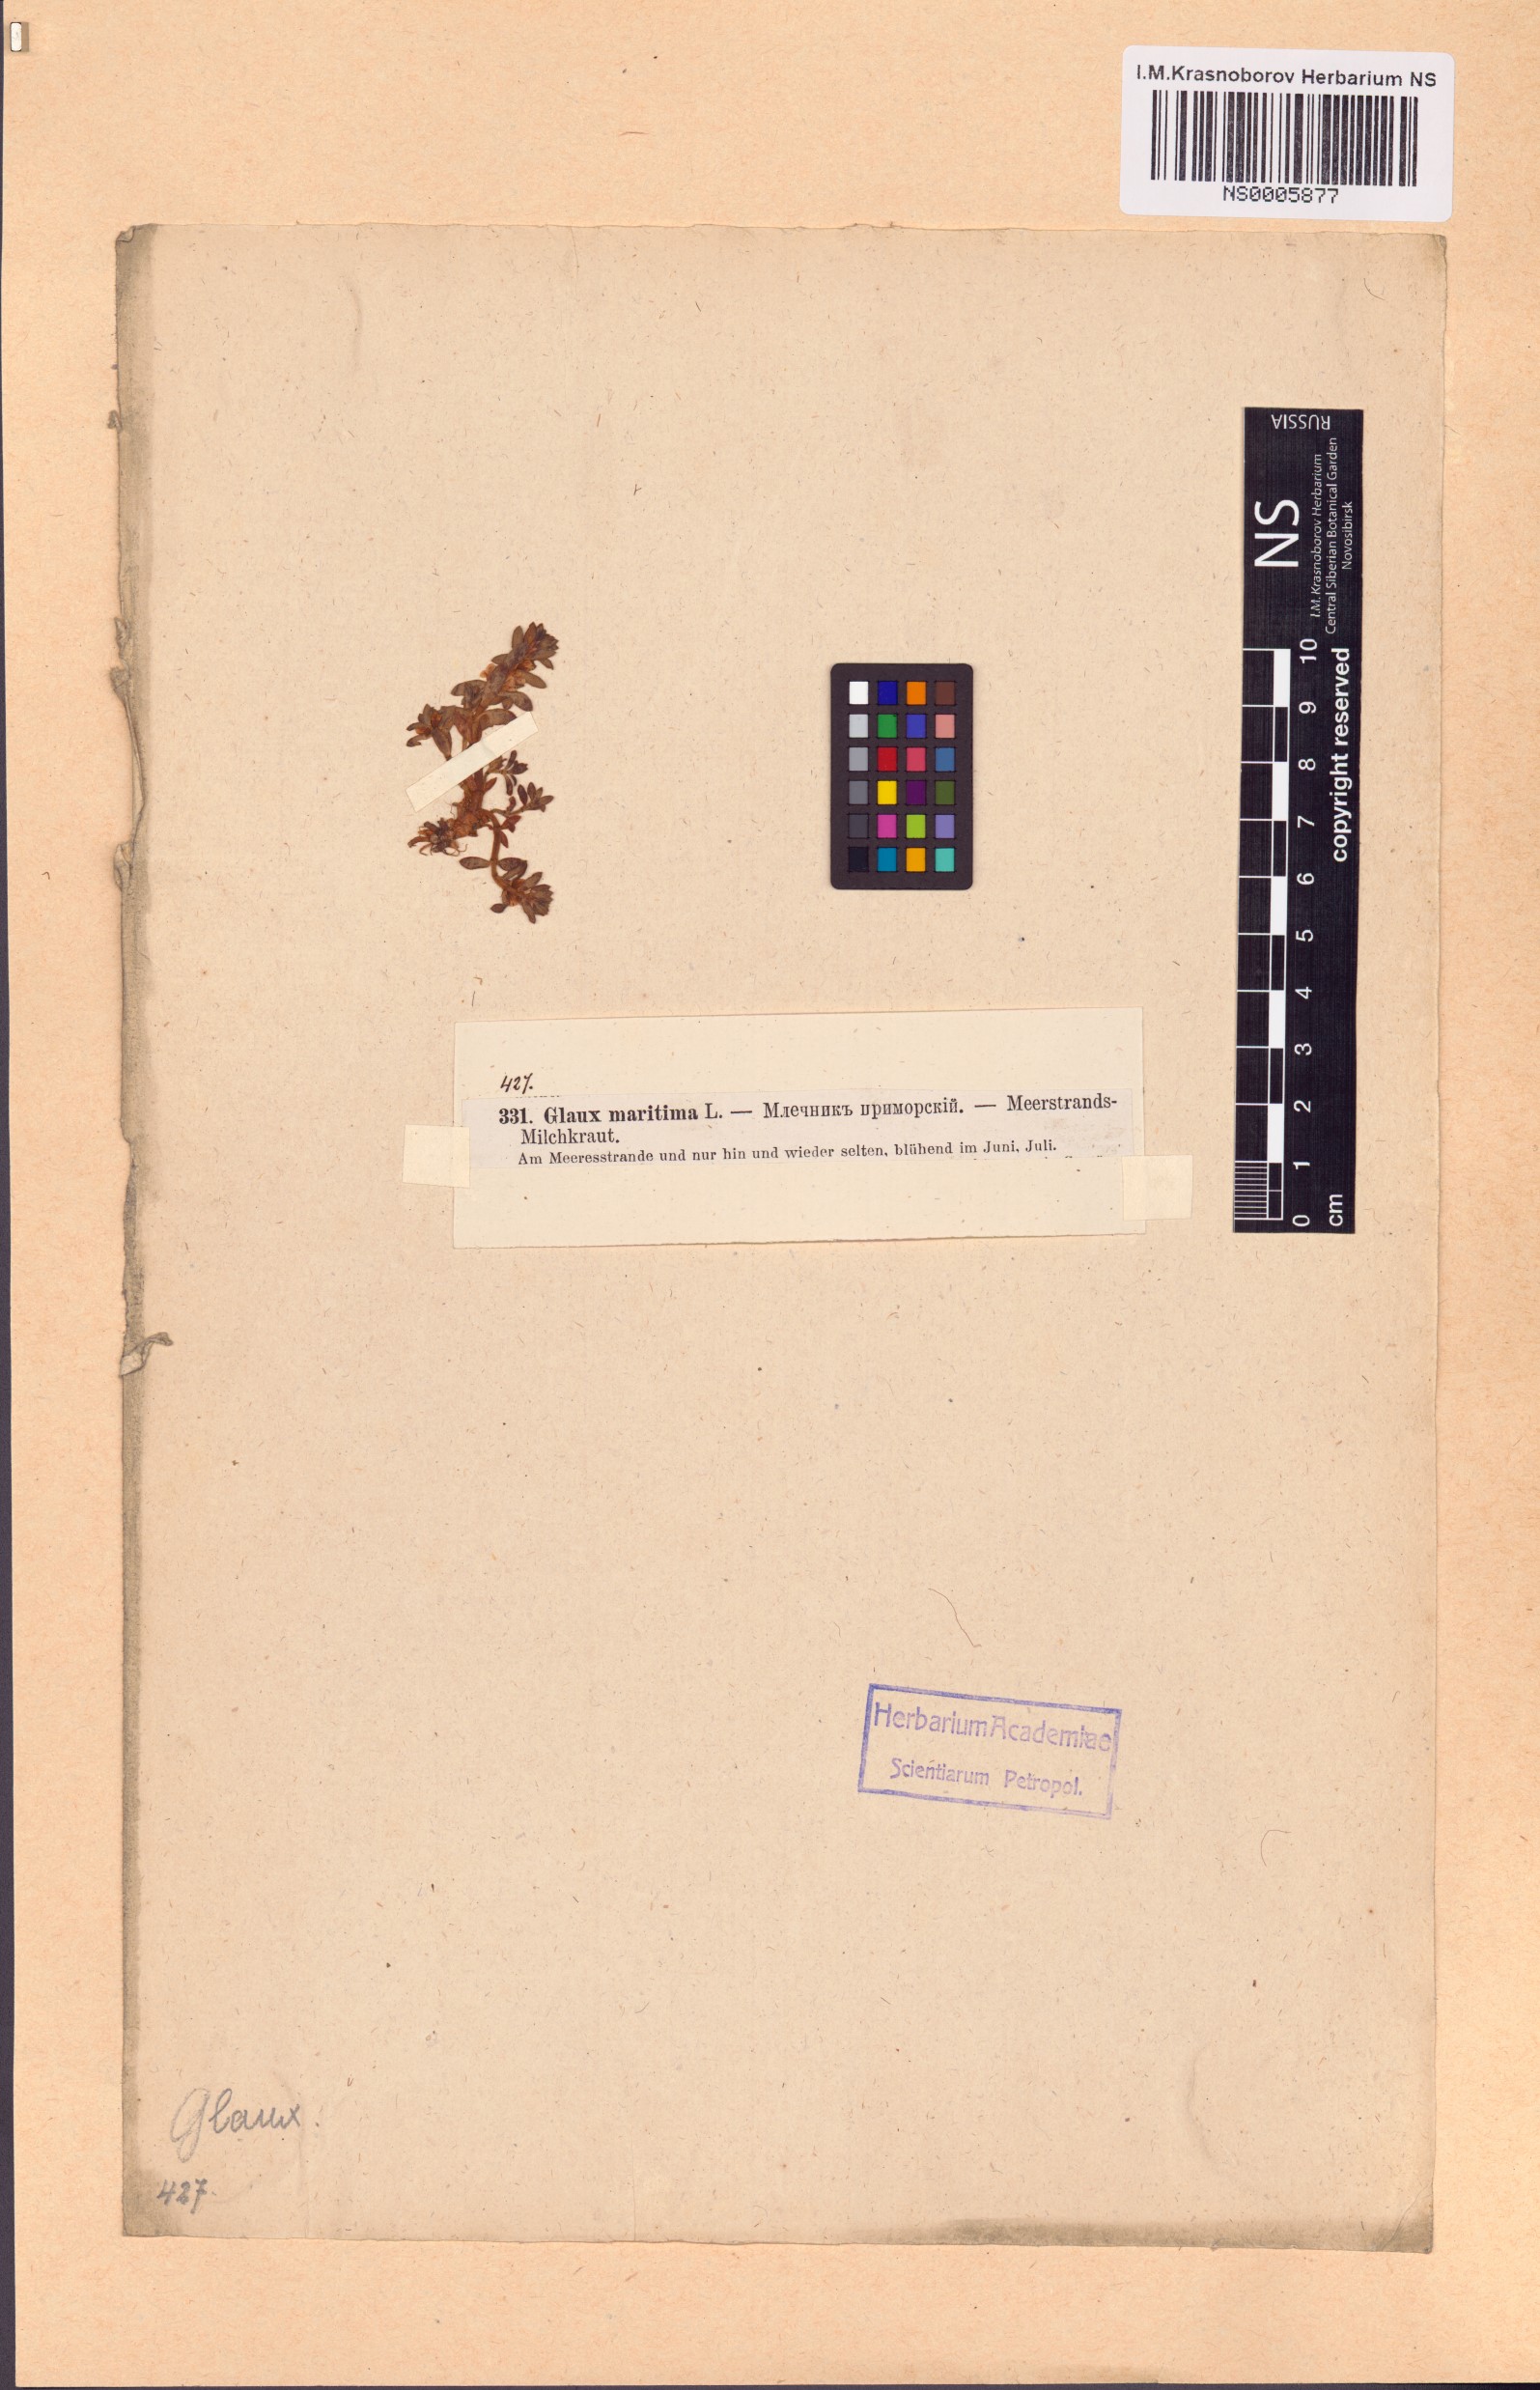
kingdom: Plantae
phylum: Tracheophyta
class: Magnoliopsida
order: Ericales
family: Primulaceae
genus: Lysimachia
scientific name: Lysimachia maritima
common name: Sea milkwort
